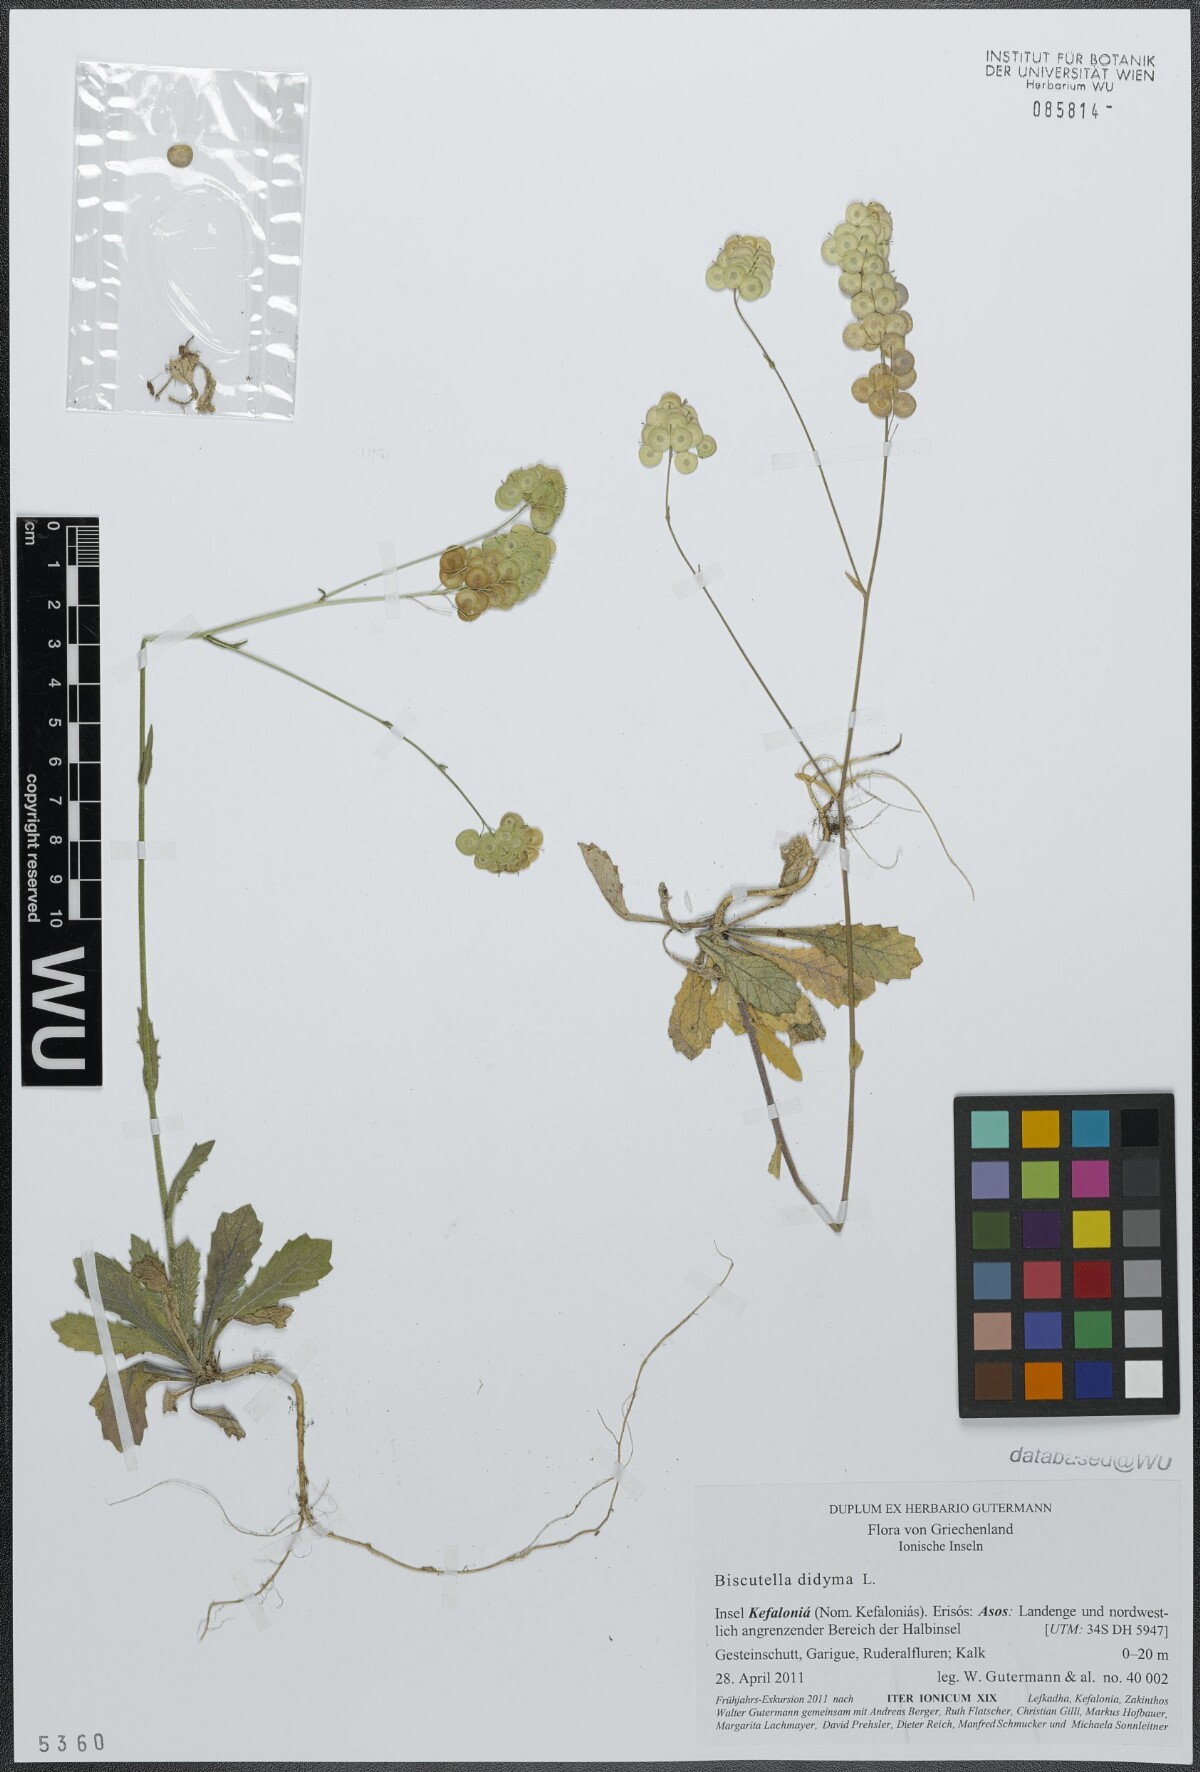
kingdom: Plantae
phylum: Tracheophyta
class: Magnoliopsida
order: Brassicales
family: Brassicaceae
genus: Biscutella
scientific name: Biscutella didyma
